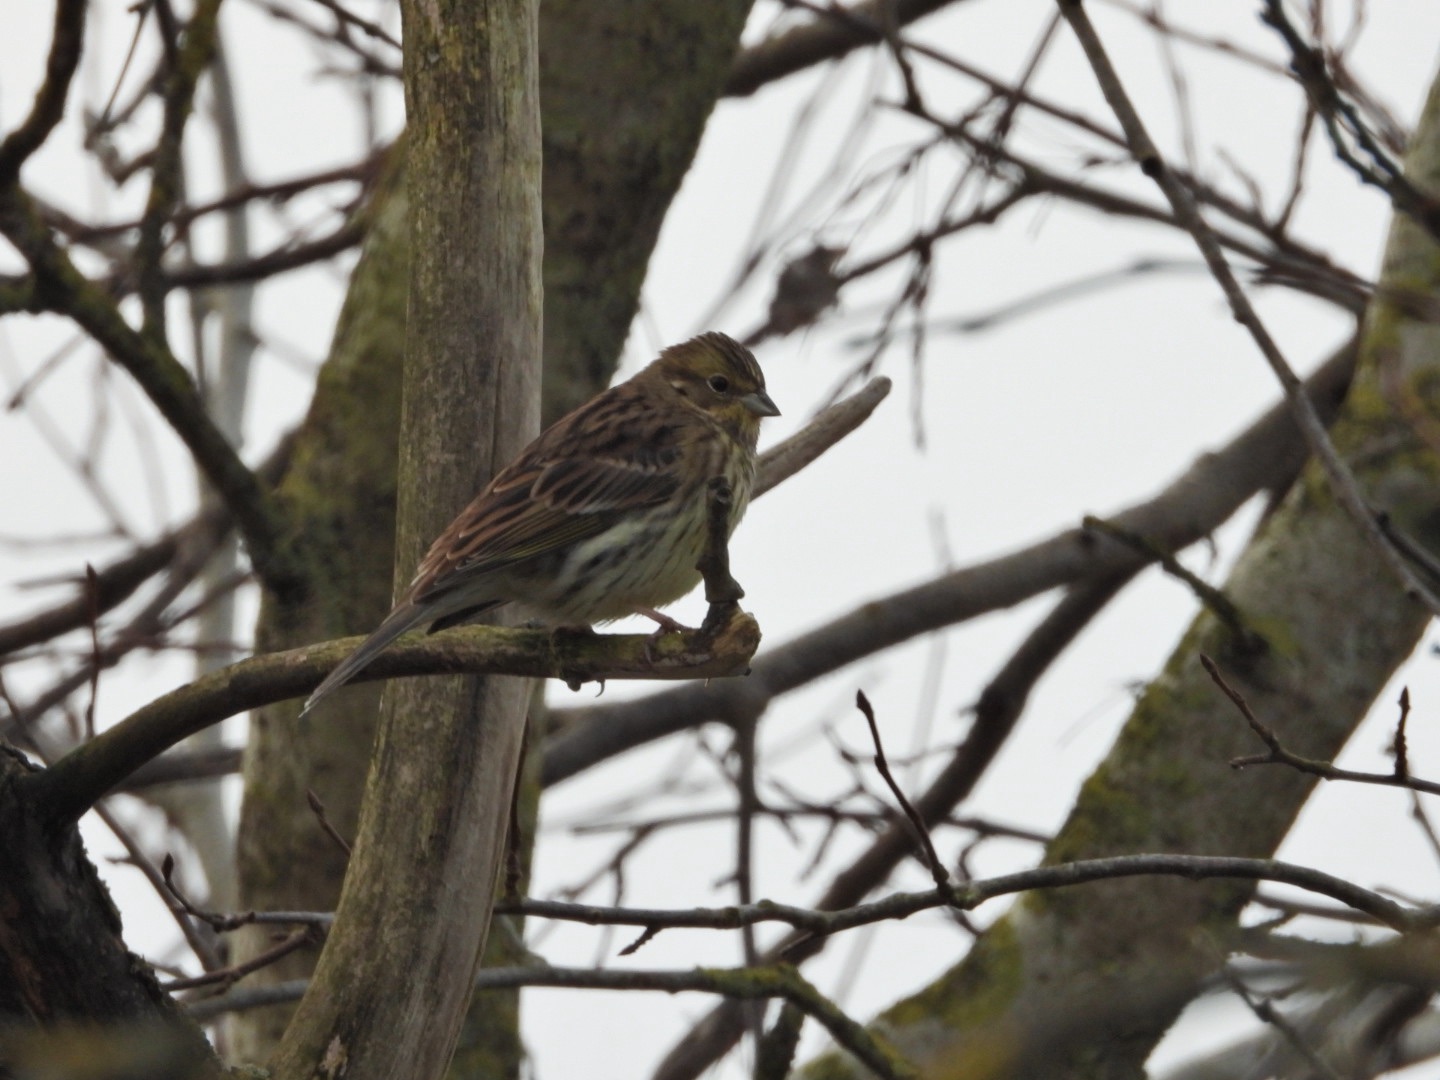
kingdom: Animalia
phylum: Chordata
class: Aves
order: Passeriformes
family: Emberizidae
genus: Emberiza
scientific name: Emberiza citrinella
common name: Gulspurv
